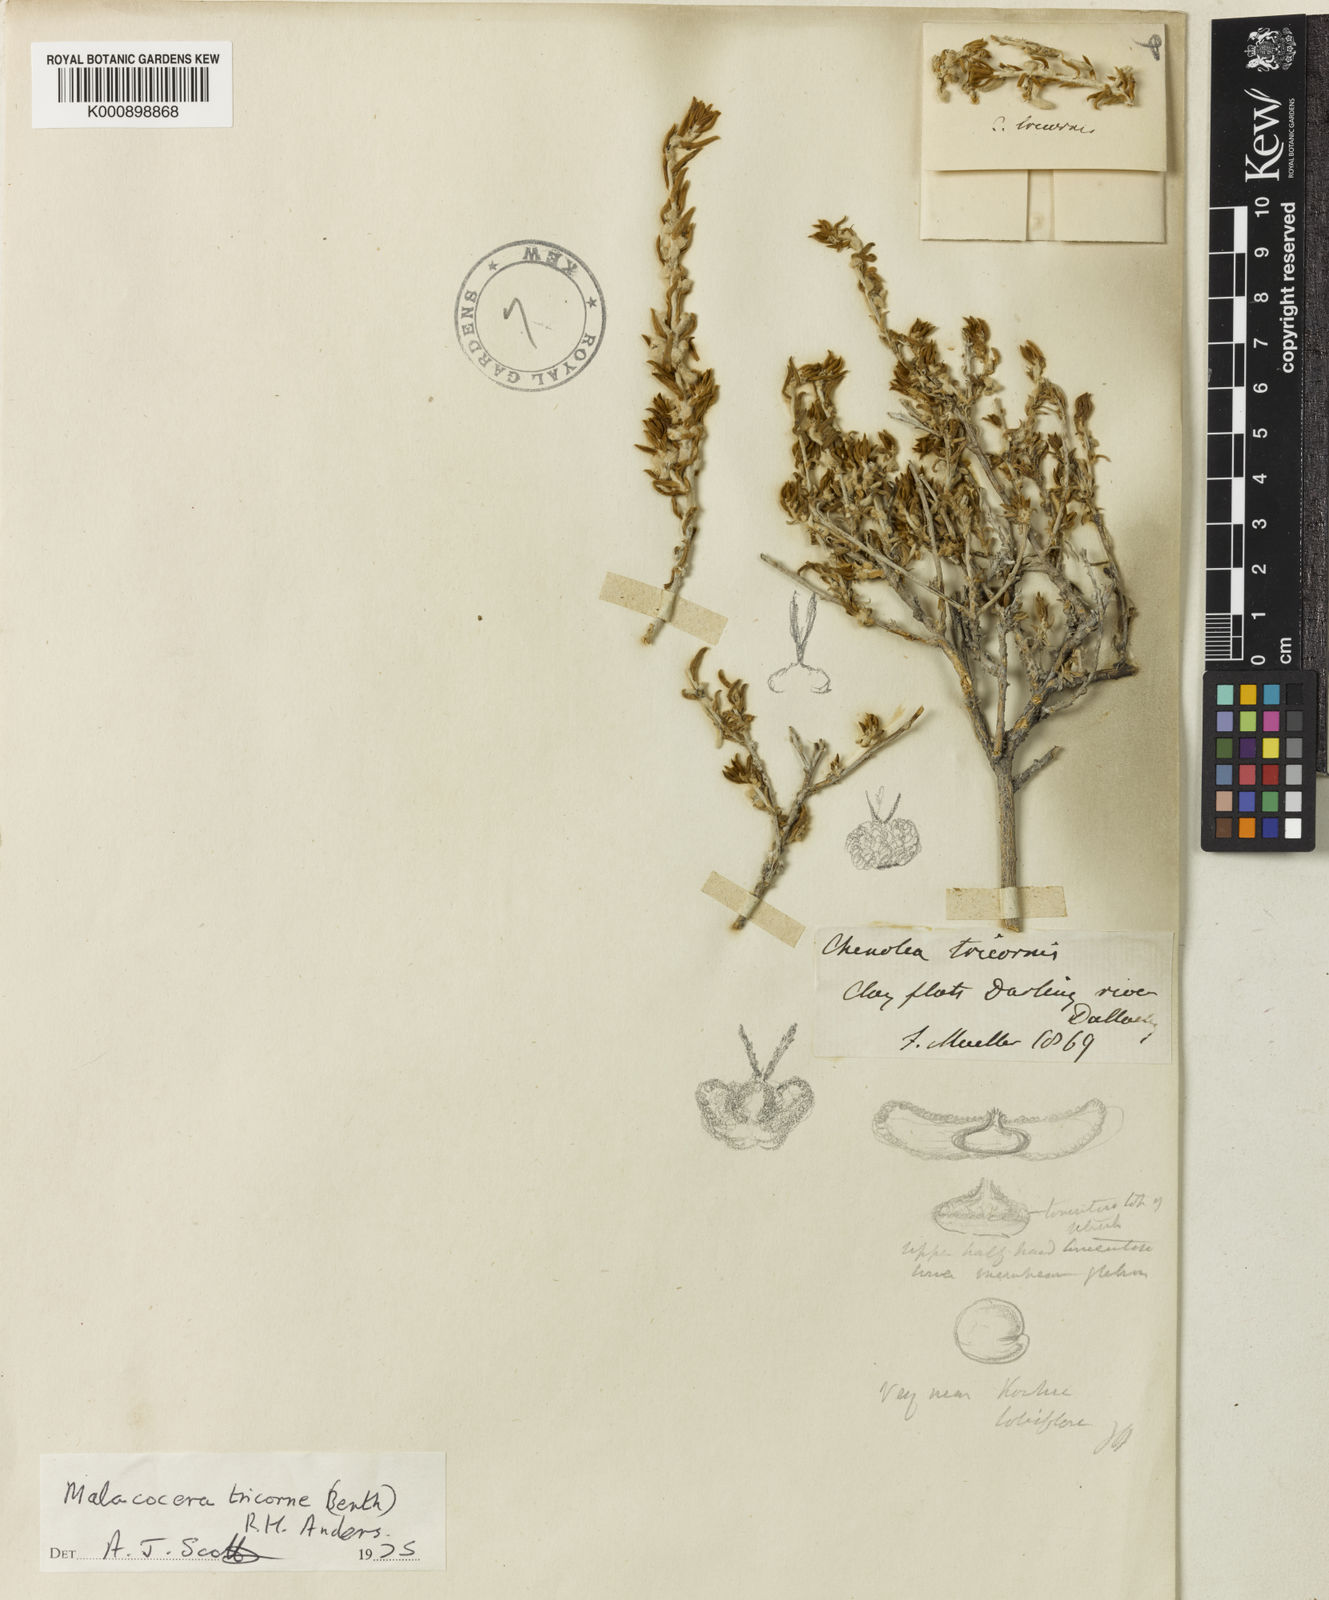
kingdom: Plantae
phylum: Tracheophyta
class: Magnoliopsida
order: Caryophyllales
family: Amaranthaceae
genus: Malacocera
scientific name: Malacocera tricornis
